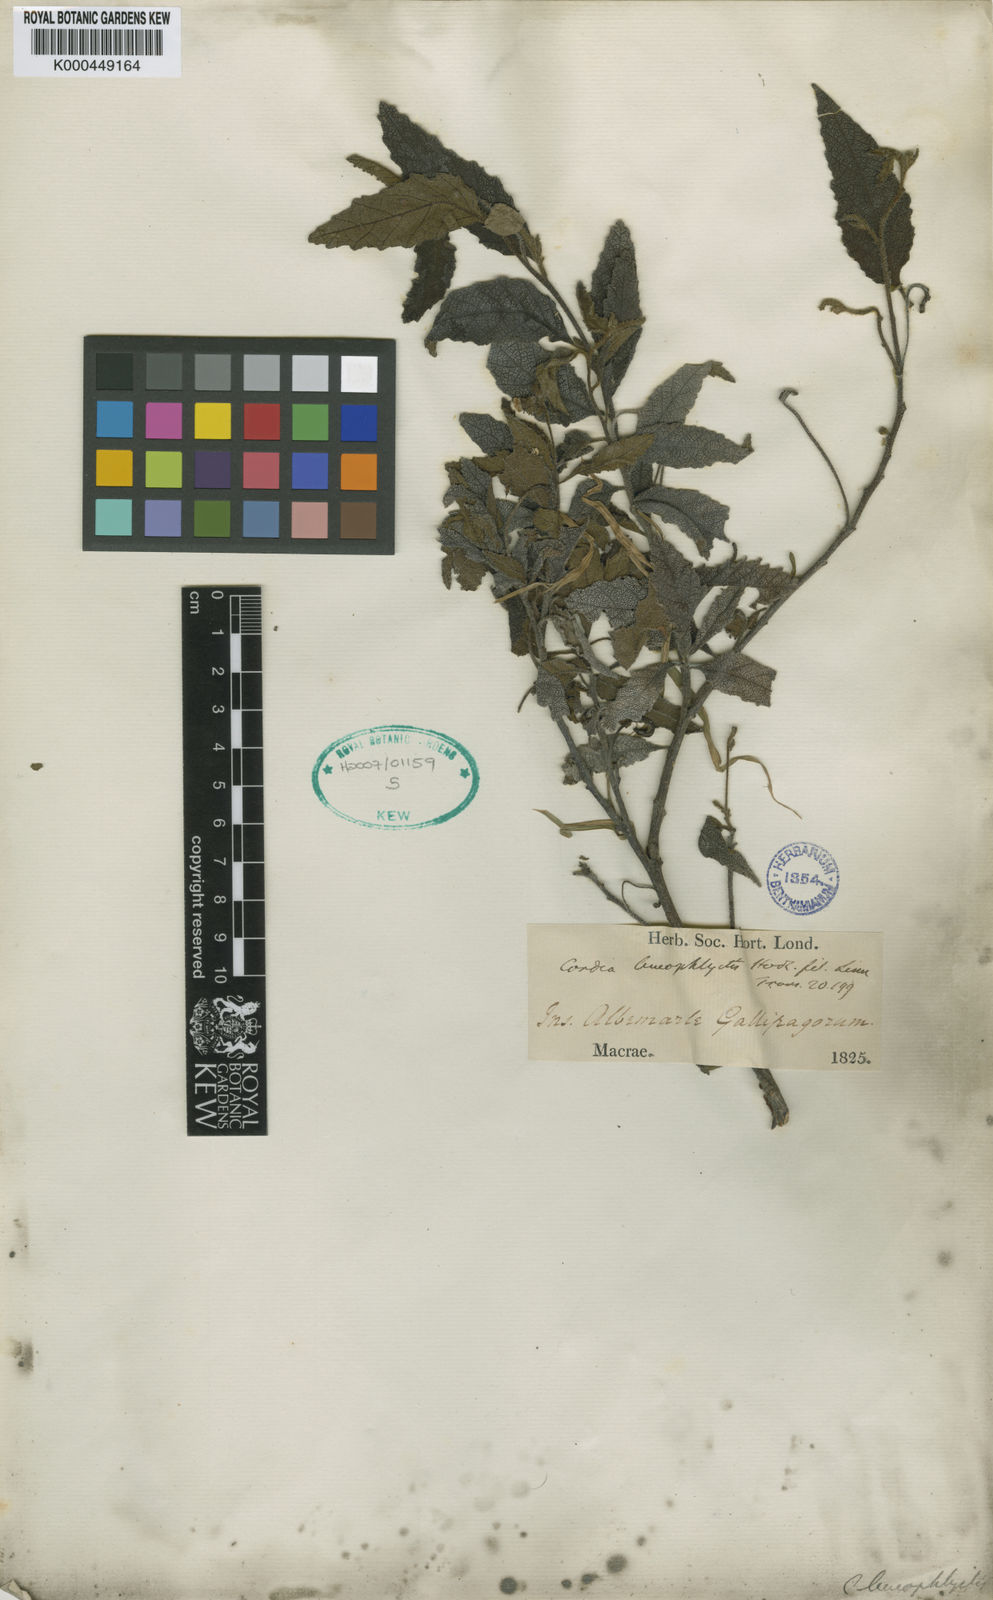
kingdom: Plantae
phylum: Tracheophyta
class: Magnoliopsida
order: Boraginales
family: Cordiaceae
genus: Varronia
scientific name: Varronia leucophlyctis
